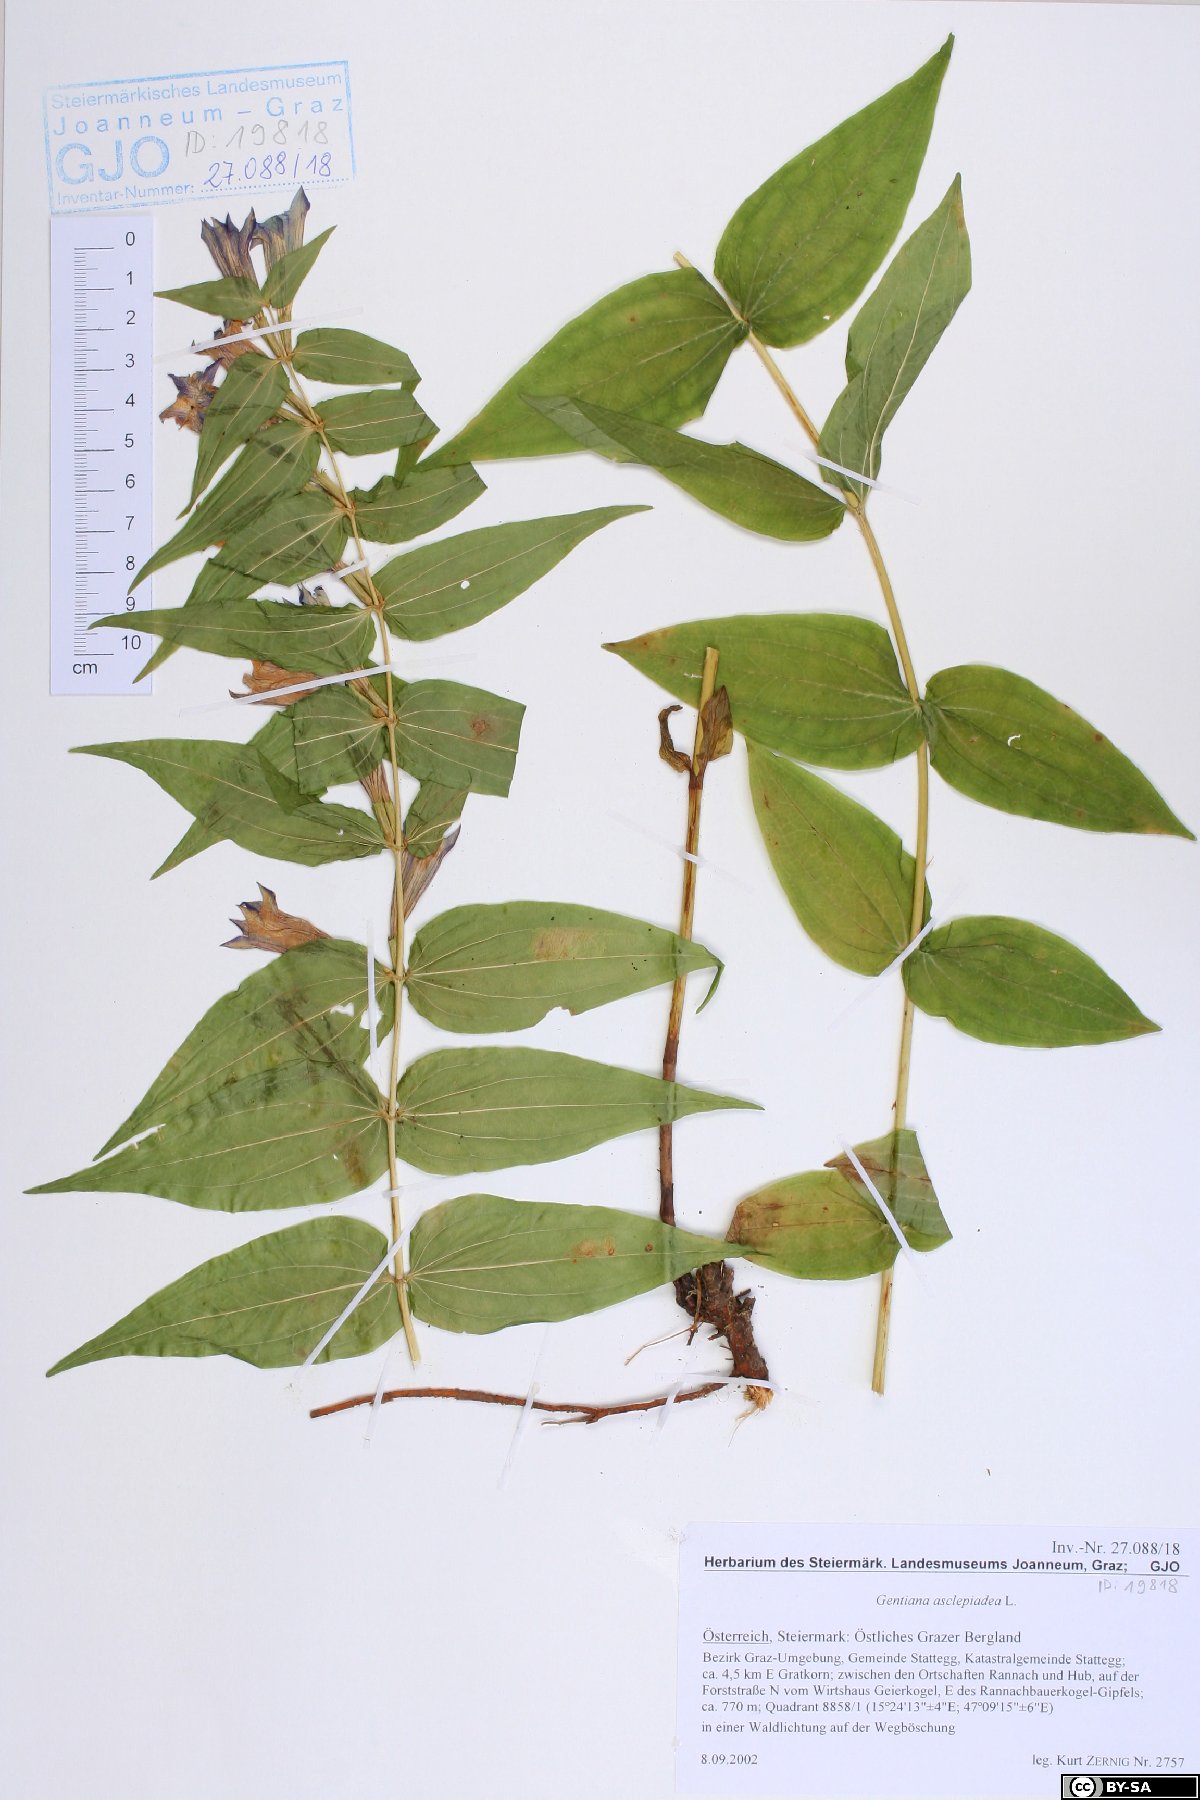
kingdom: Plantae
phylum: Tracheophyta
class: Magnoliopsida
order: Gentianales
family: Gentianaceae
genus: Gentiana
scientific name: Gentiana asclepiadea
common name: Willow gentian
